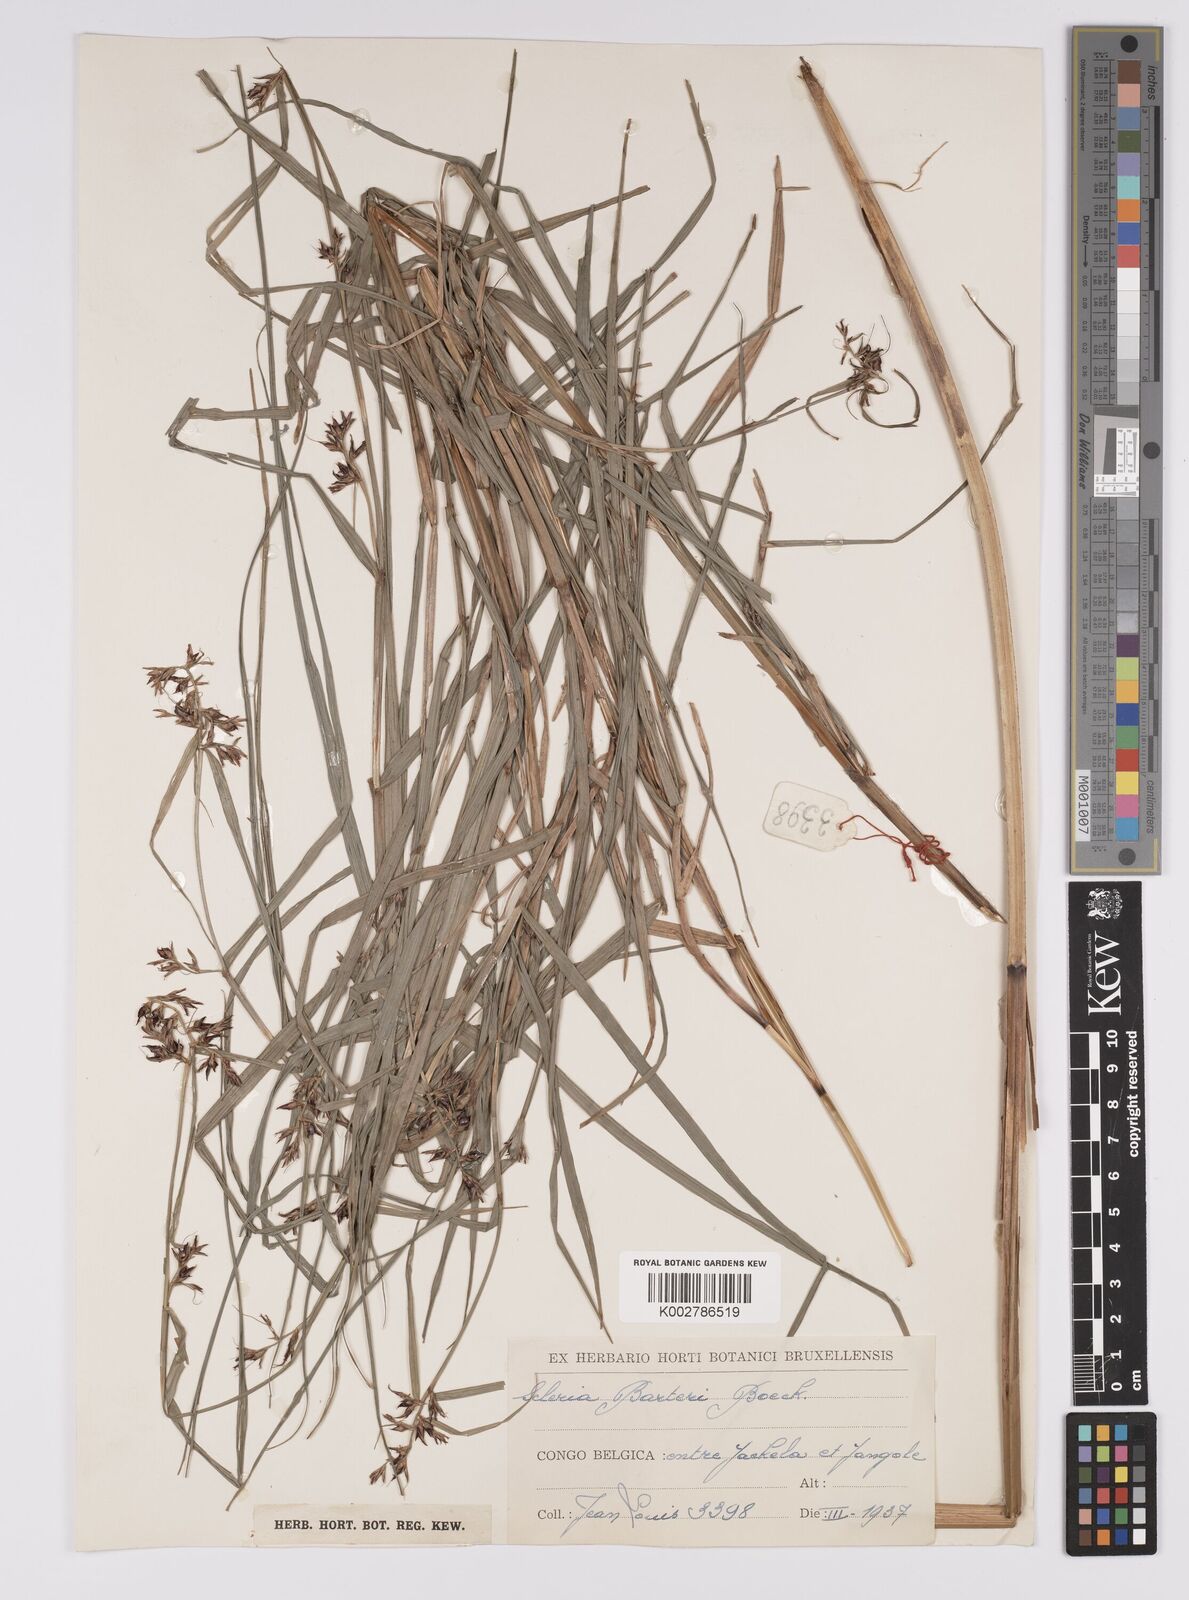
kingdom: Plantae
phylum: Tracheophyta
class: Liliopsida
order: Poales
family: Cyperaceae
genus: Scleria
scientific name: Scleria boivinii
